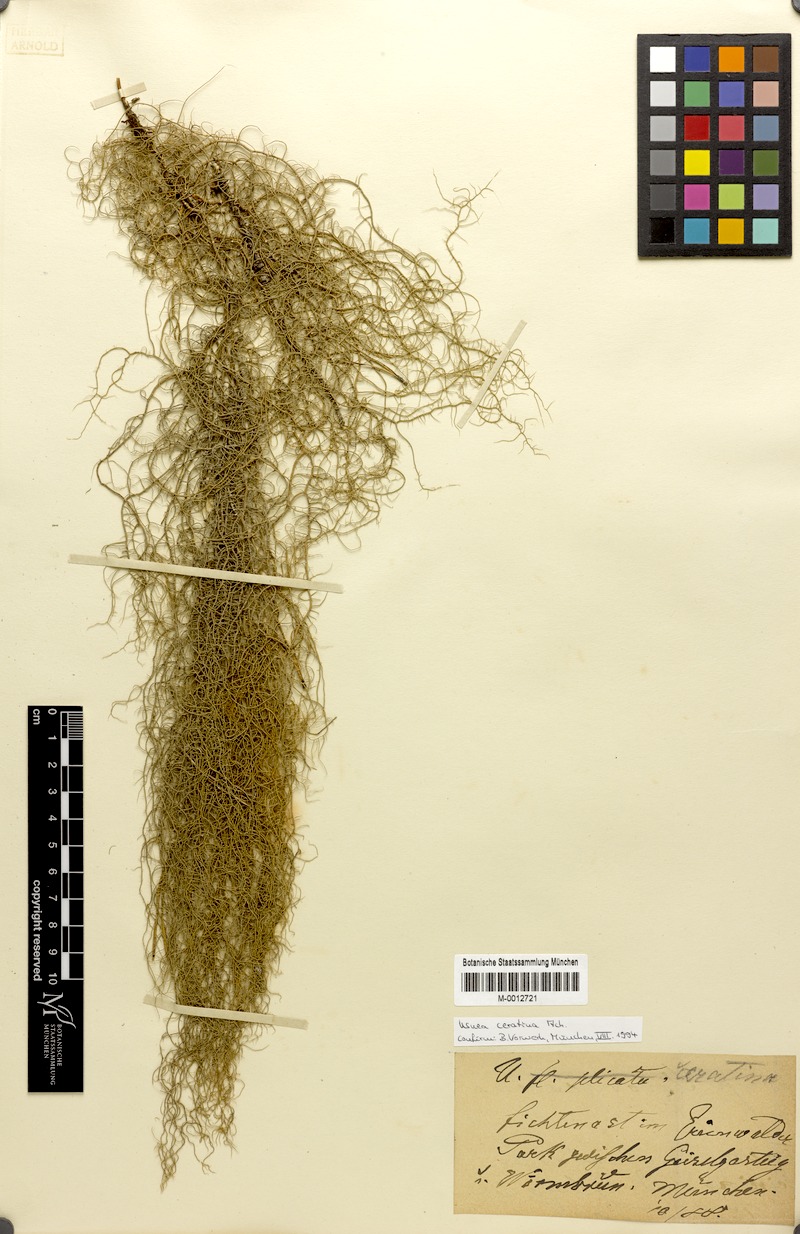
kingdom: Fungi
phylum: Ascomycota
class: Lecanoromycetes
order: Lecanorales
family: Parmeliaceae
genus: Usnea
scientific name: Usnea ceratina
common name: Warty beard lichen
